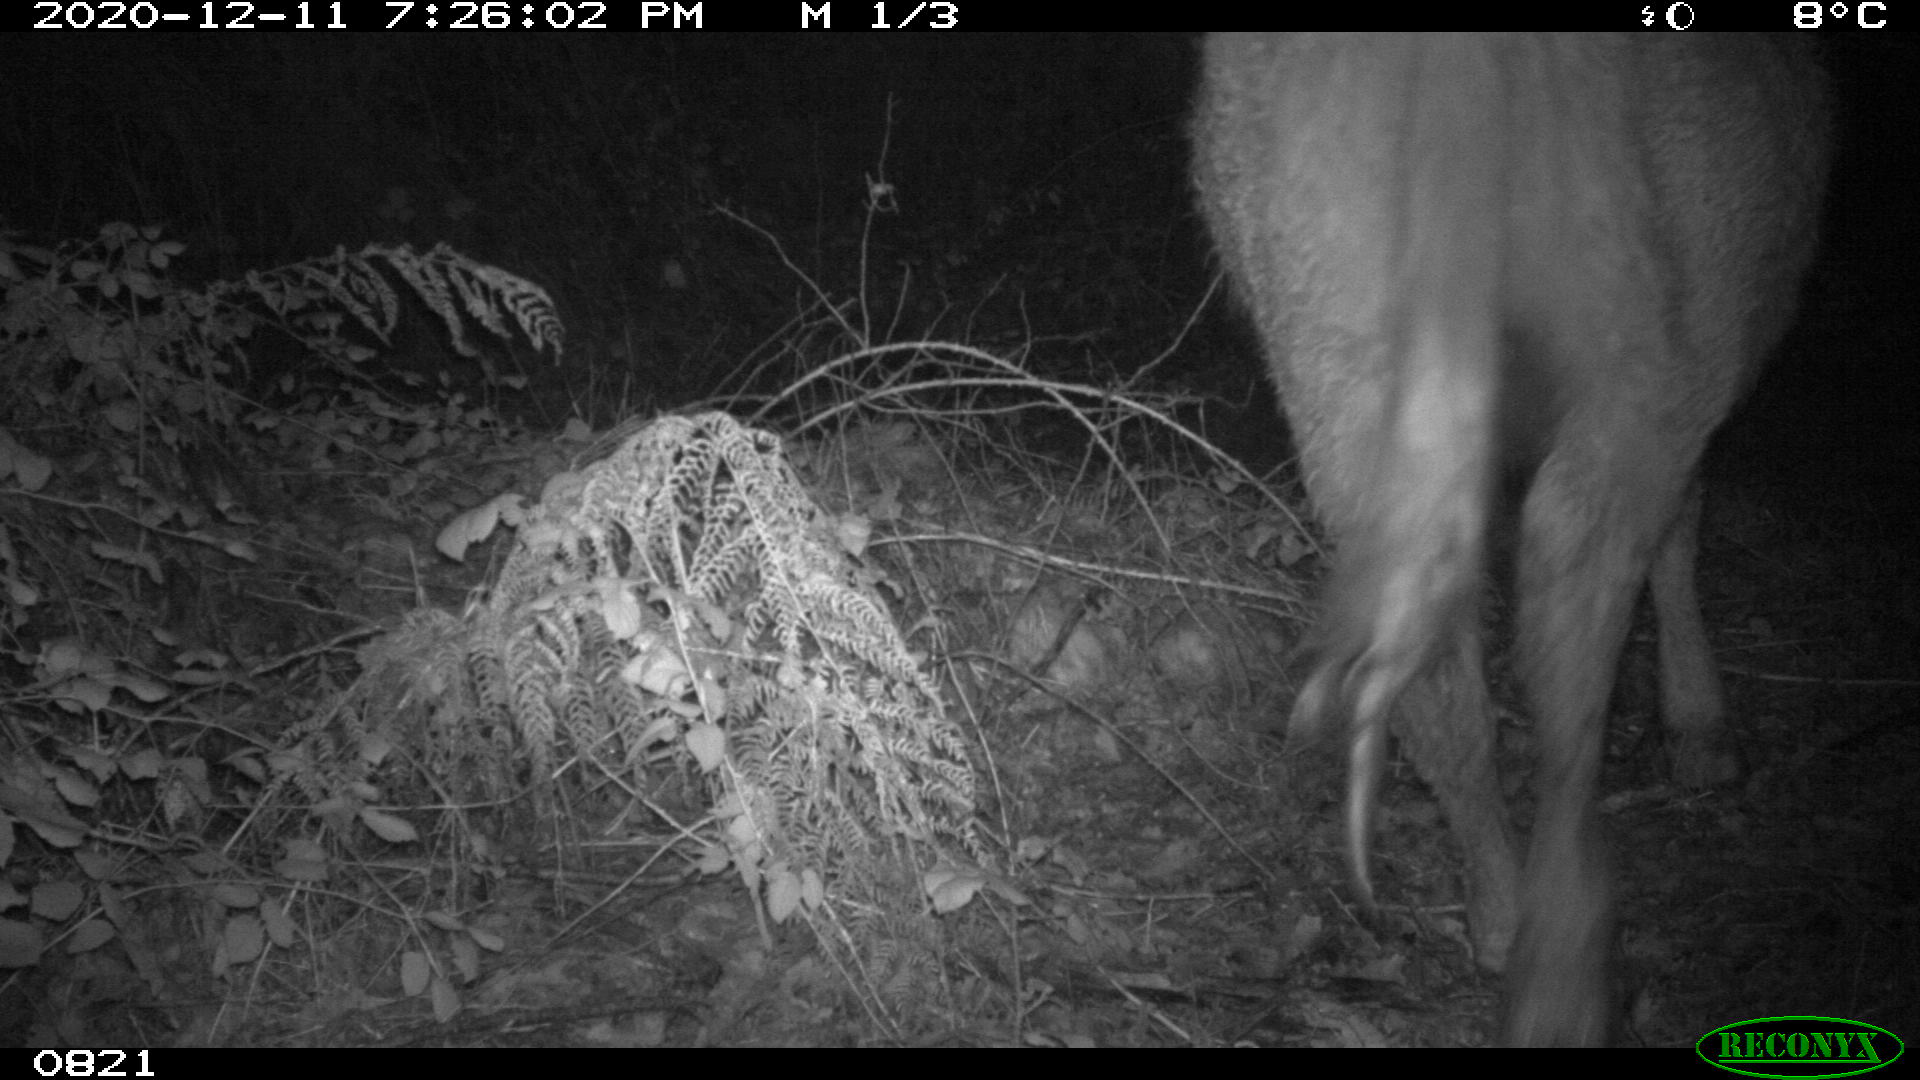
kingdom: Animalia
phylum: Chordata
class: Mammalia
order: Artiodactyla
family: Bovidae
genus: Bos
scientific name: Bos taurus
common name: Domesticated cattle
